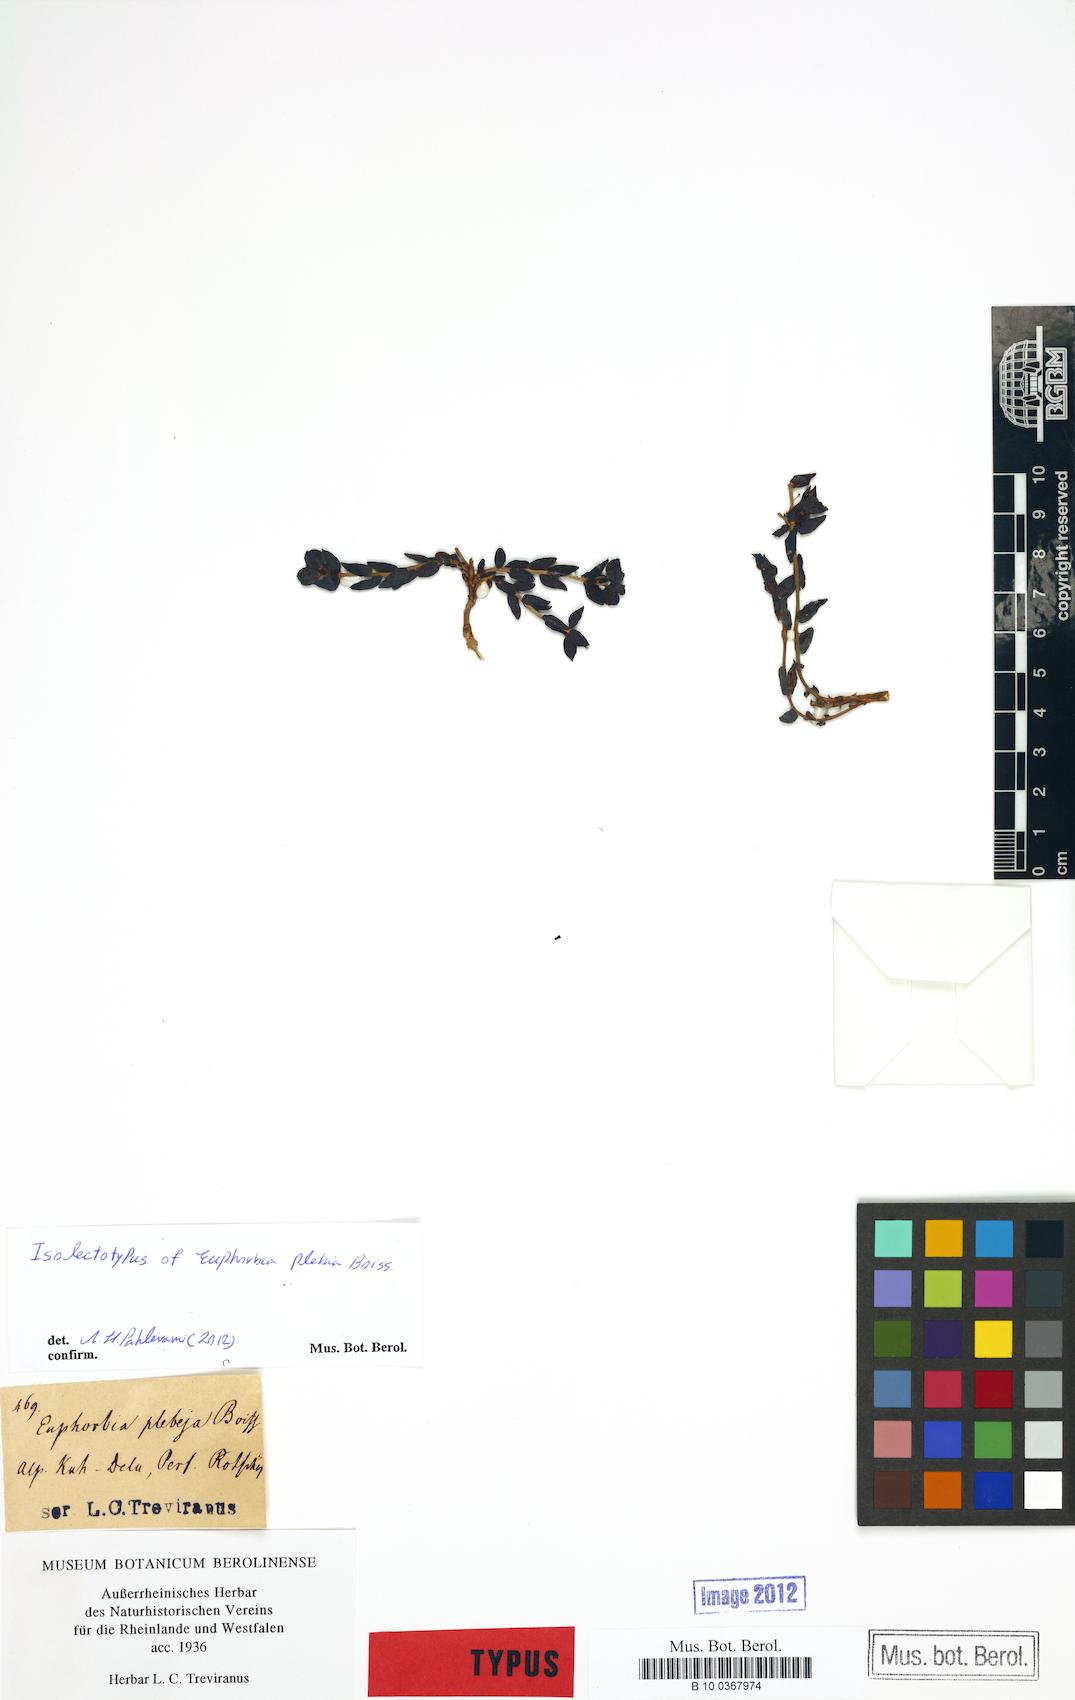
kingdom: Plantae
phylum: Tracheophyta
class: Magnoliopsida
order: Malpighiales
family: Euphorbiaceae
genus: Euphorbia
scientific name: Euphorbia plebeia
